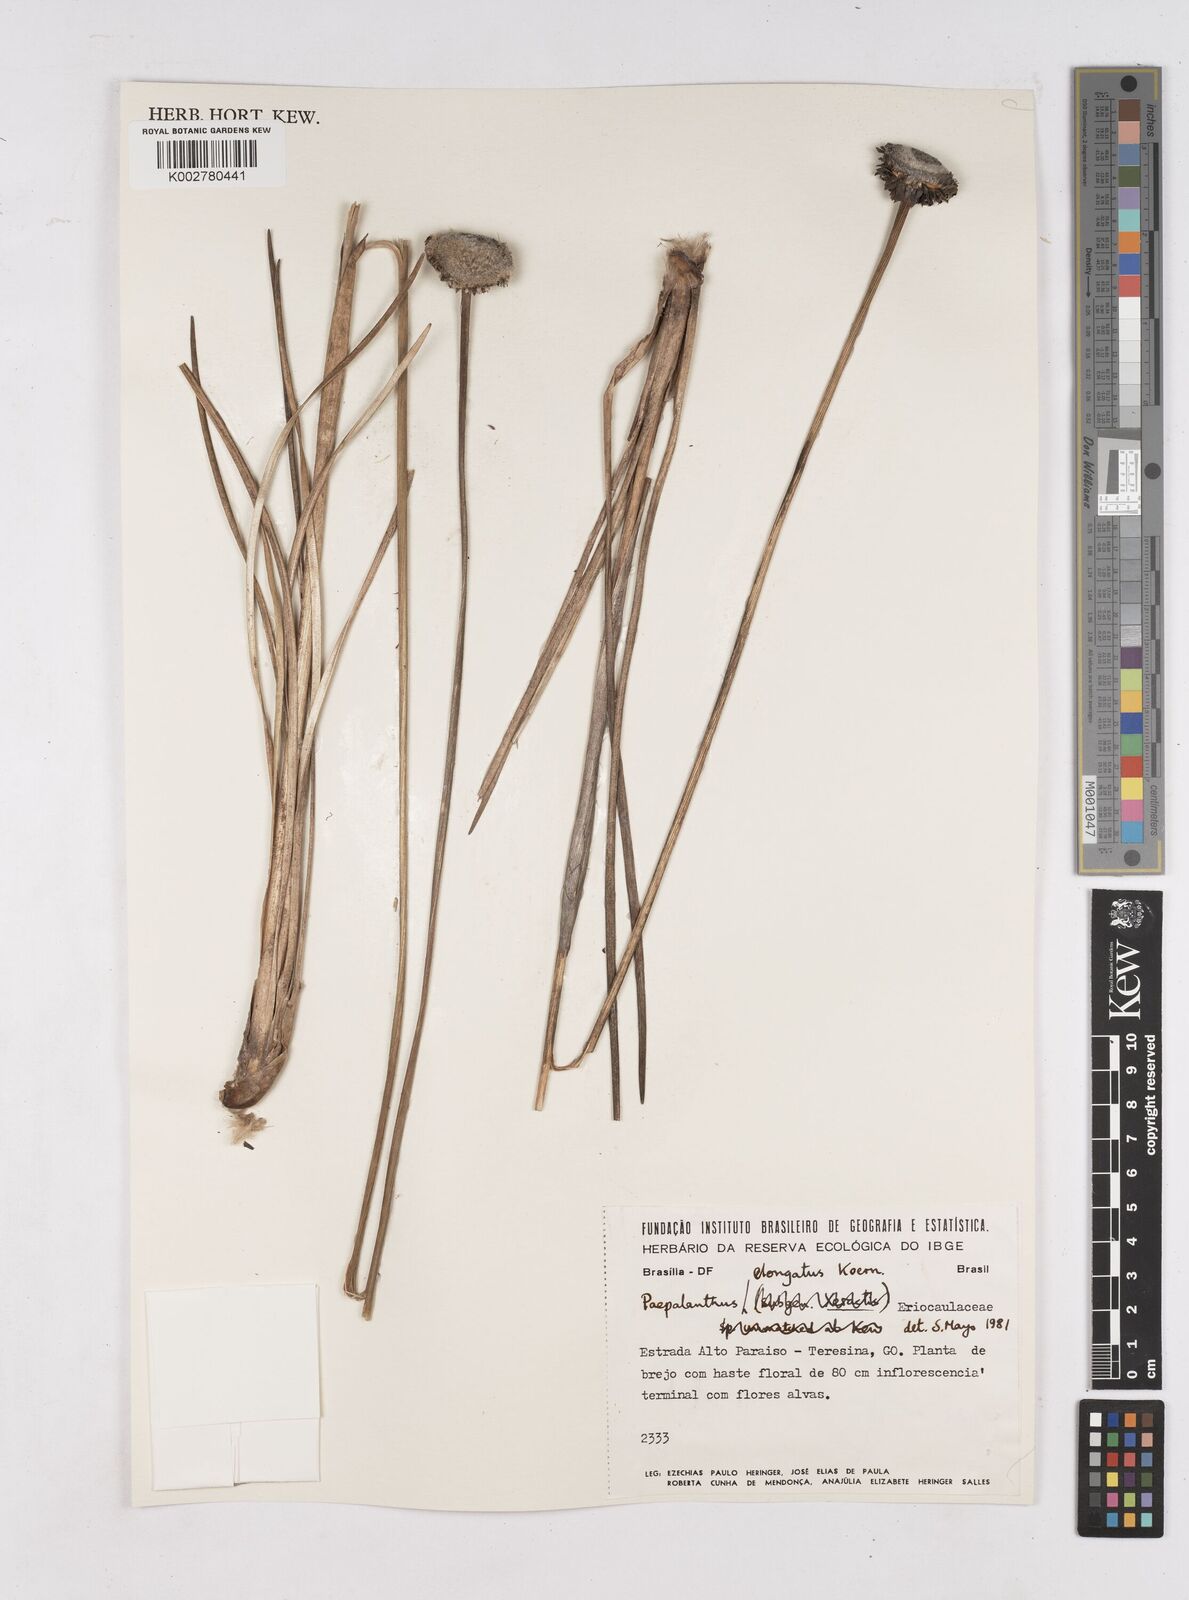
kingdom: Plantae
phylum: Tracheophyta
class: Liliopsida
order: Poales
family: Eriocaulaceae
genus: Paepalanthus
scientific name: Paepalanthus elongatus
